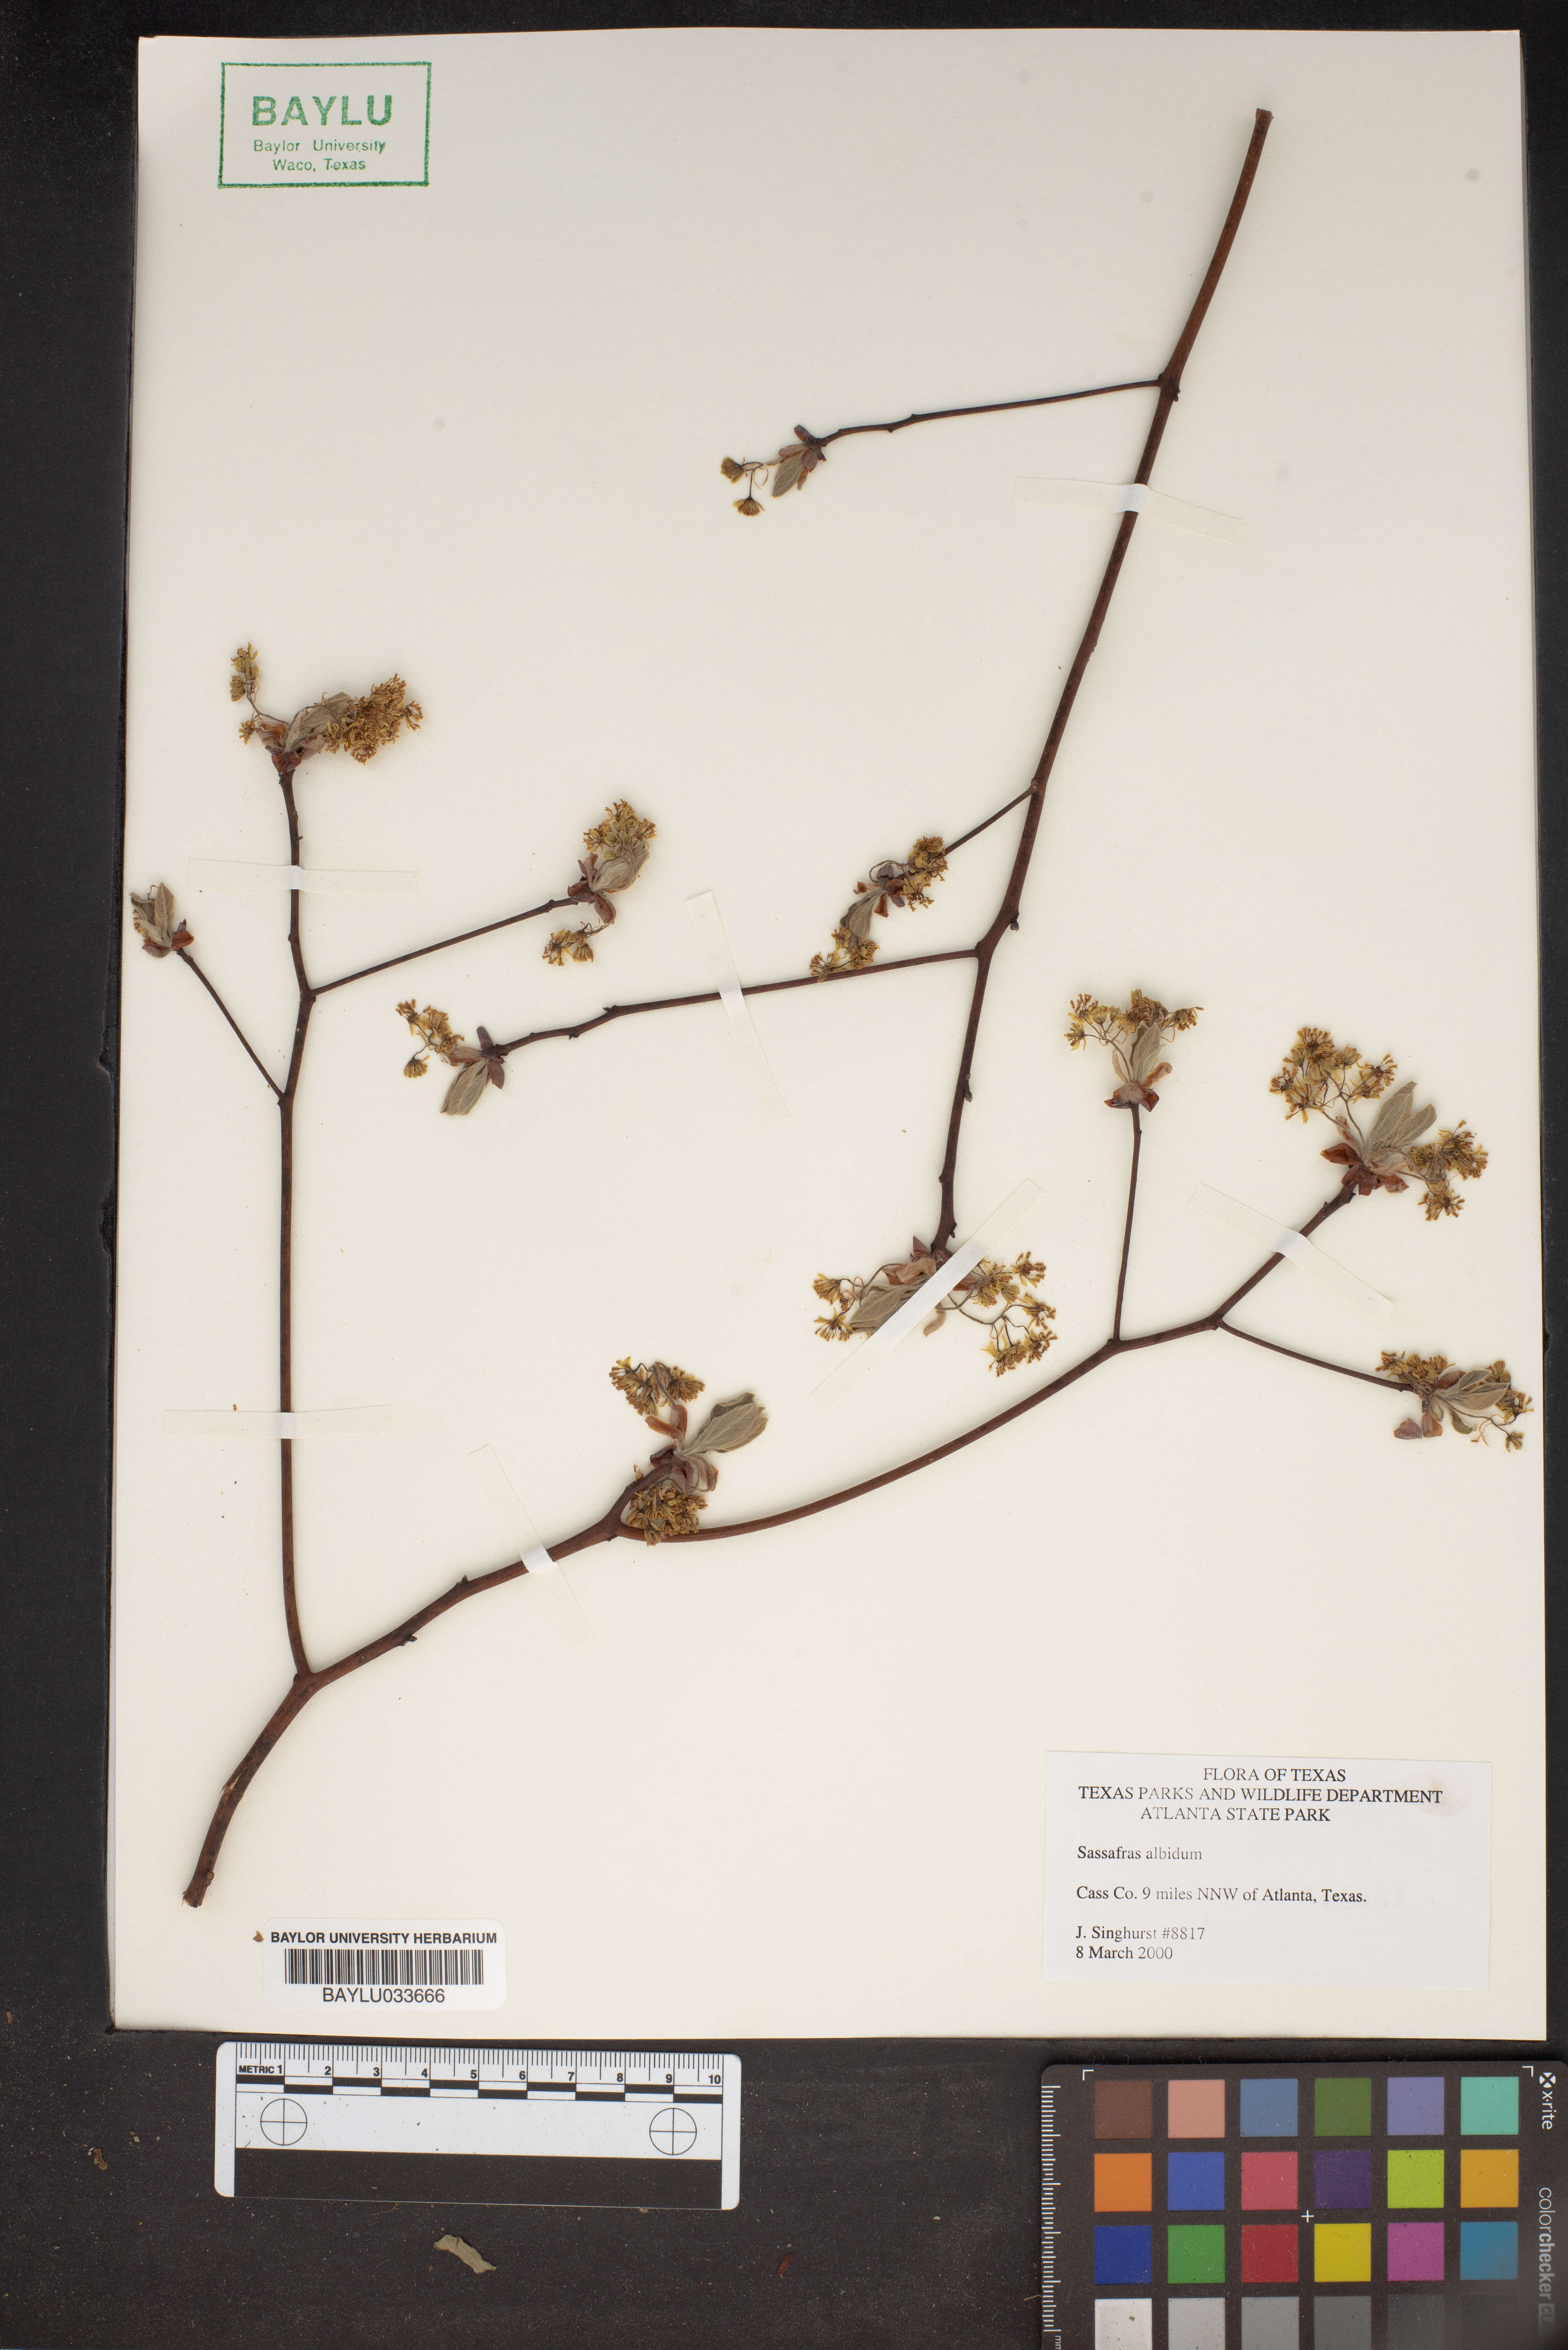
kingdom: Plantae
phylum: Tracheophyta
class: Magnoliopsida
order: Laurales
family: Lauraceae
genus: Sassafras
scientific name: Sassafras albidum
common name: Sassafras
